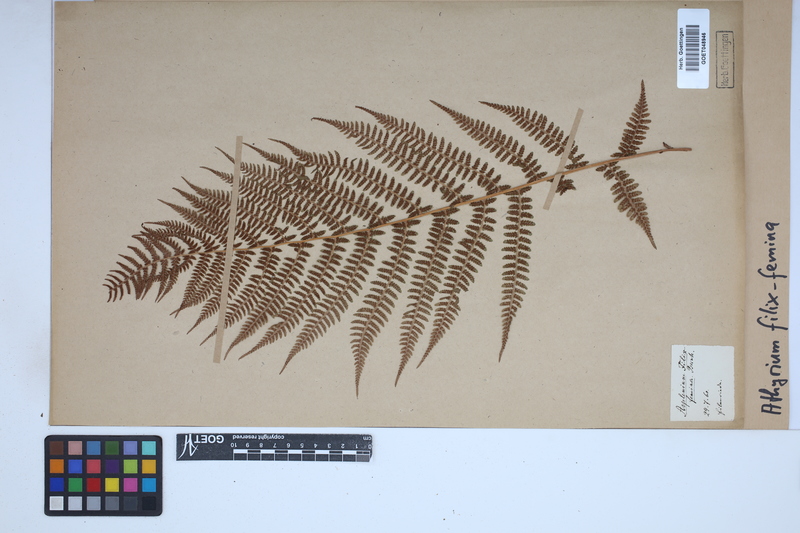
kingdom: Plantae
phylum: Tracheophyta
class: Polypodiopsida
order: Polypodiales
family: Athyriaceae
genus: Athyrium
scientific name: Athyrium filix-femina
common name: Lady fern
